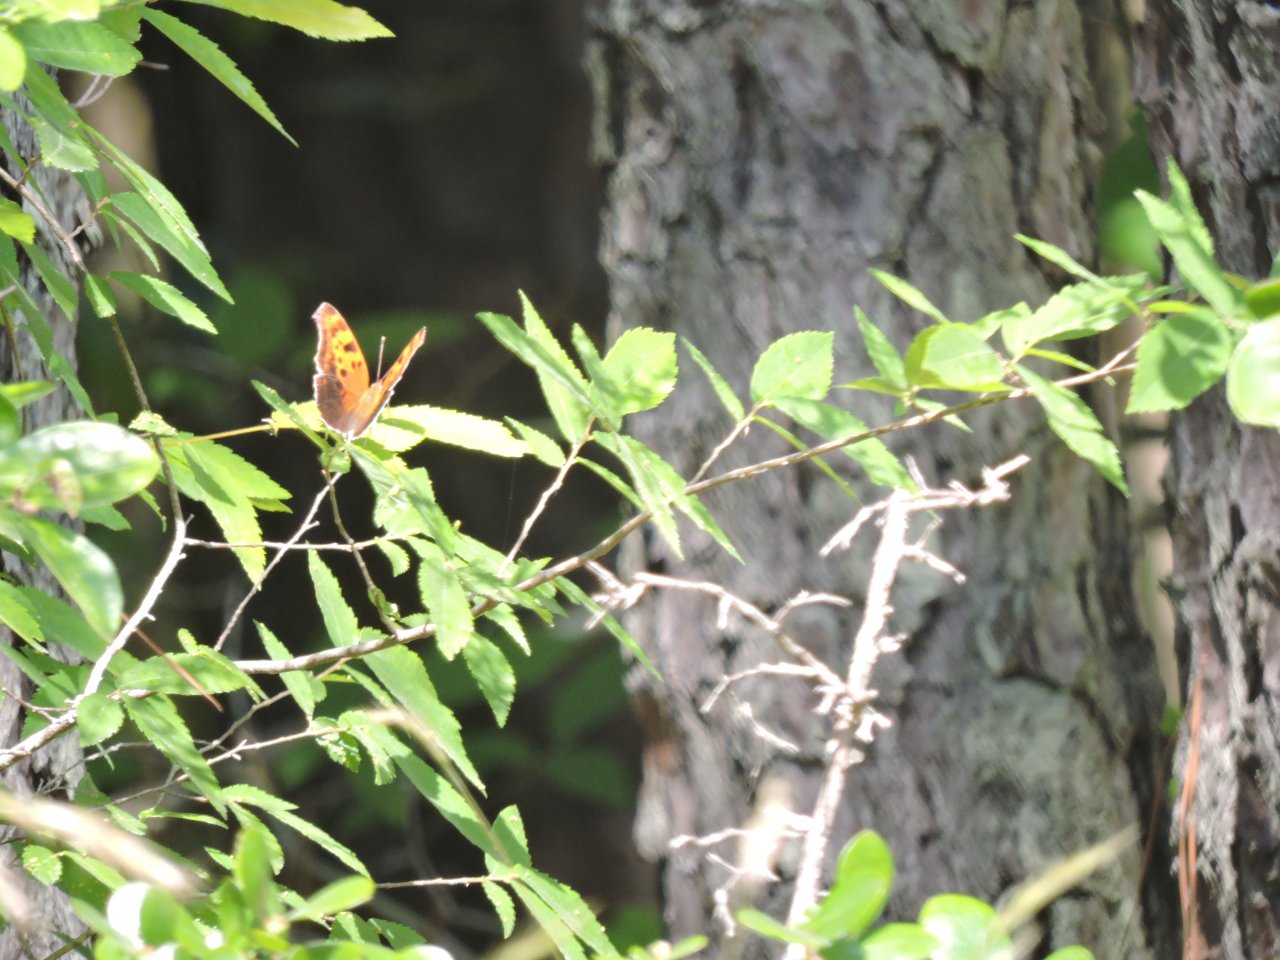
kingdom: Animalia
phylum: Arthropoda
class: Insecta
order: Lepidoptera
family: Nymphalidae
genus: Polygonia
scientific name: Polygonia interrogationis
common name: Question Mark
